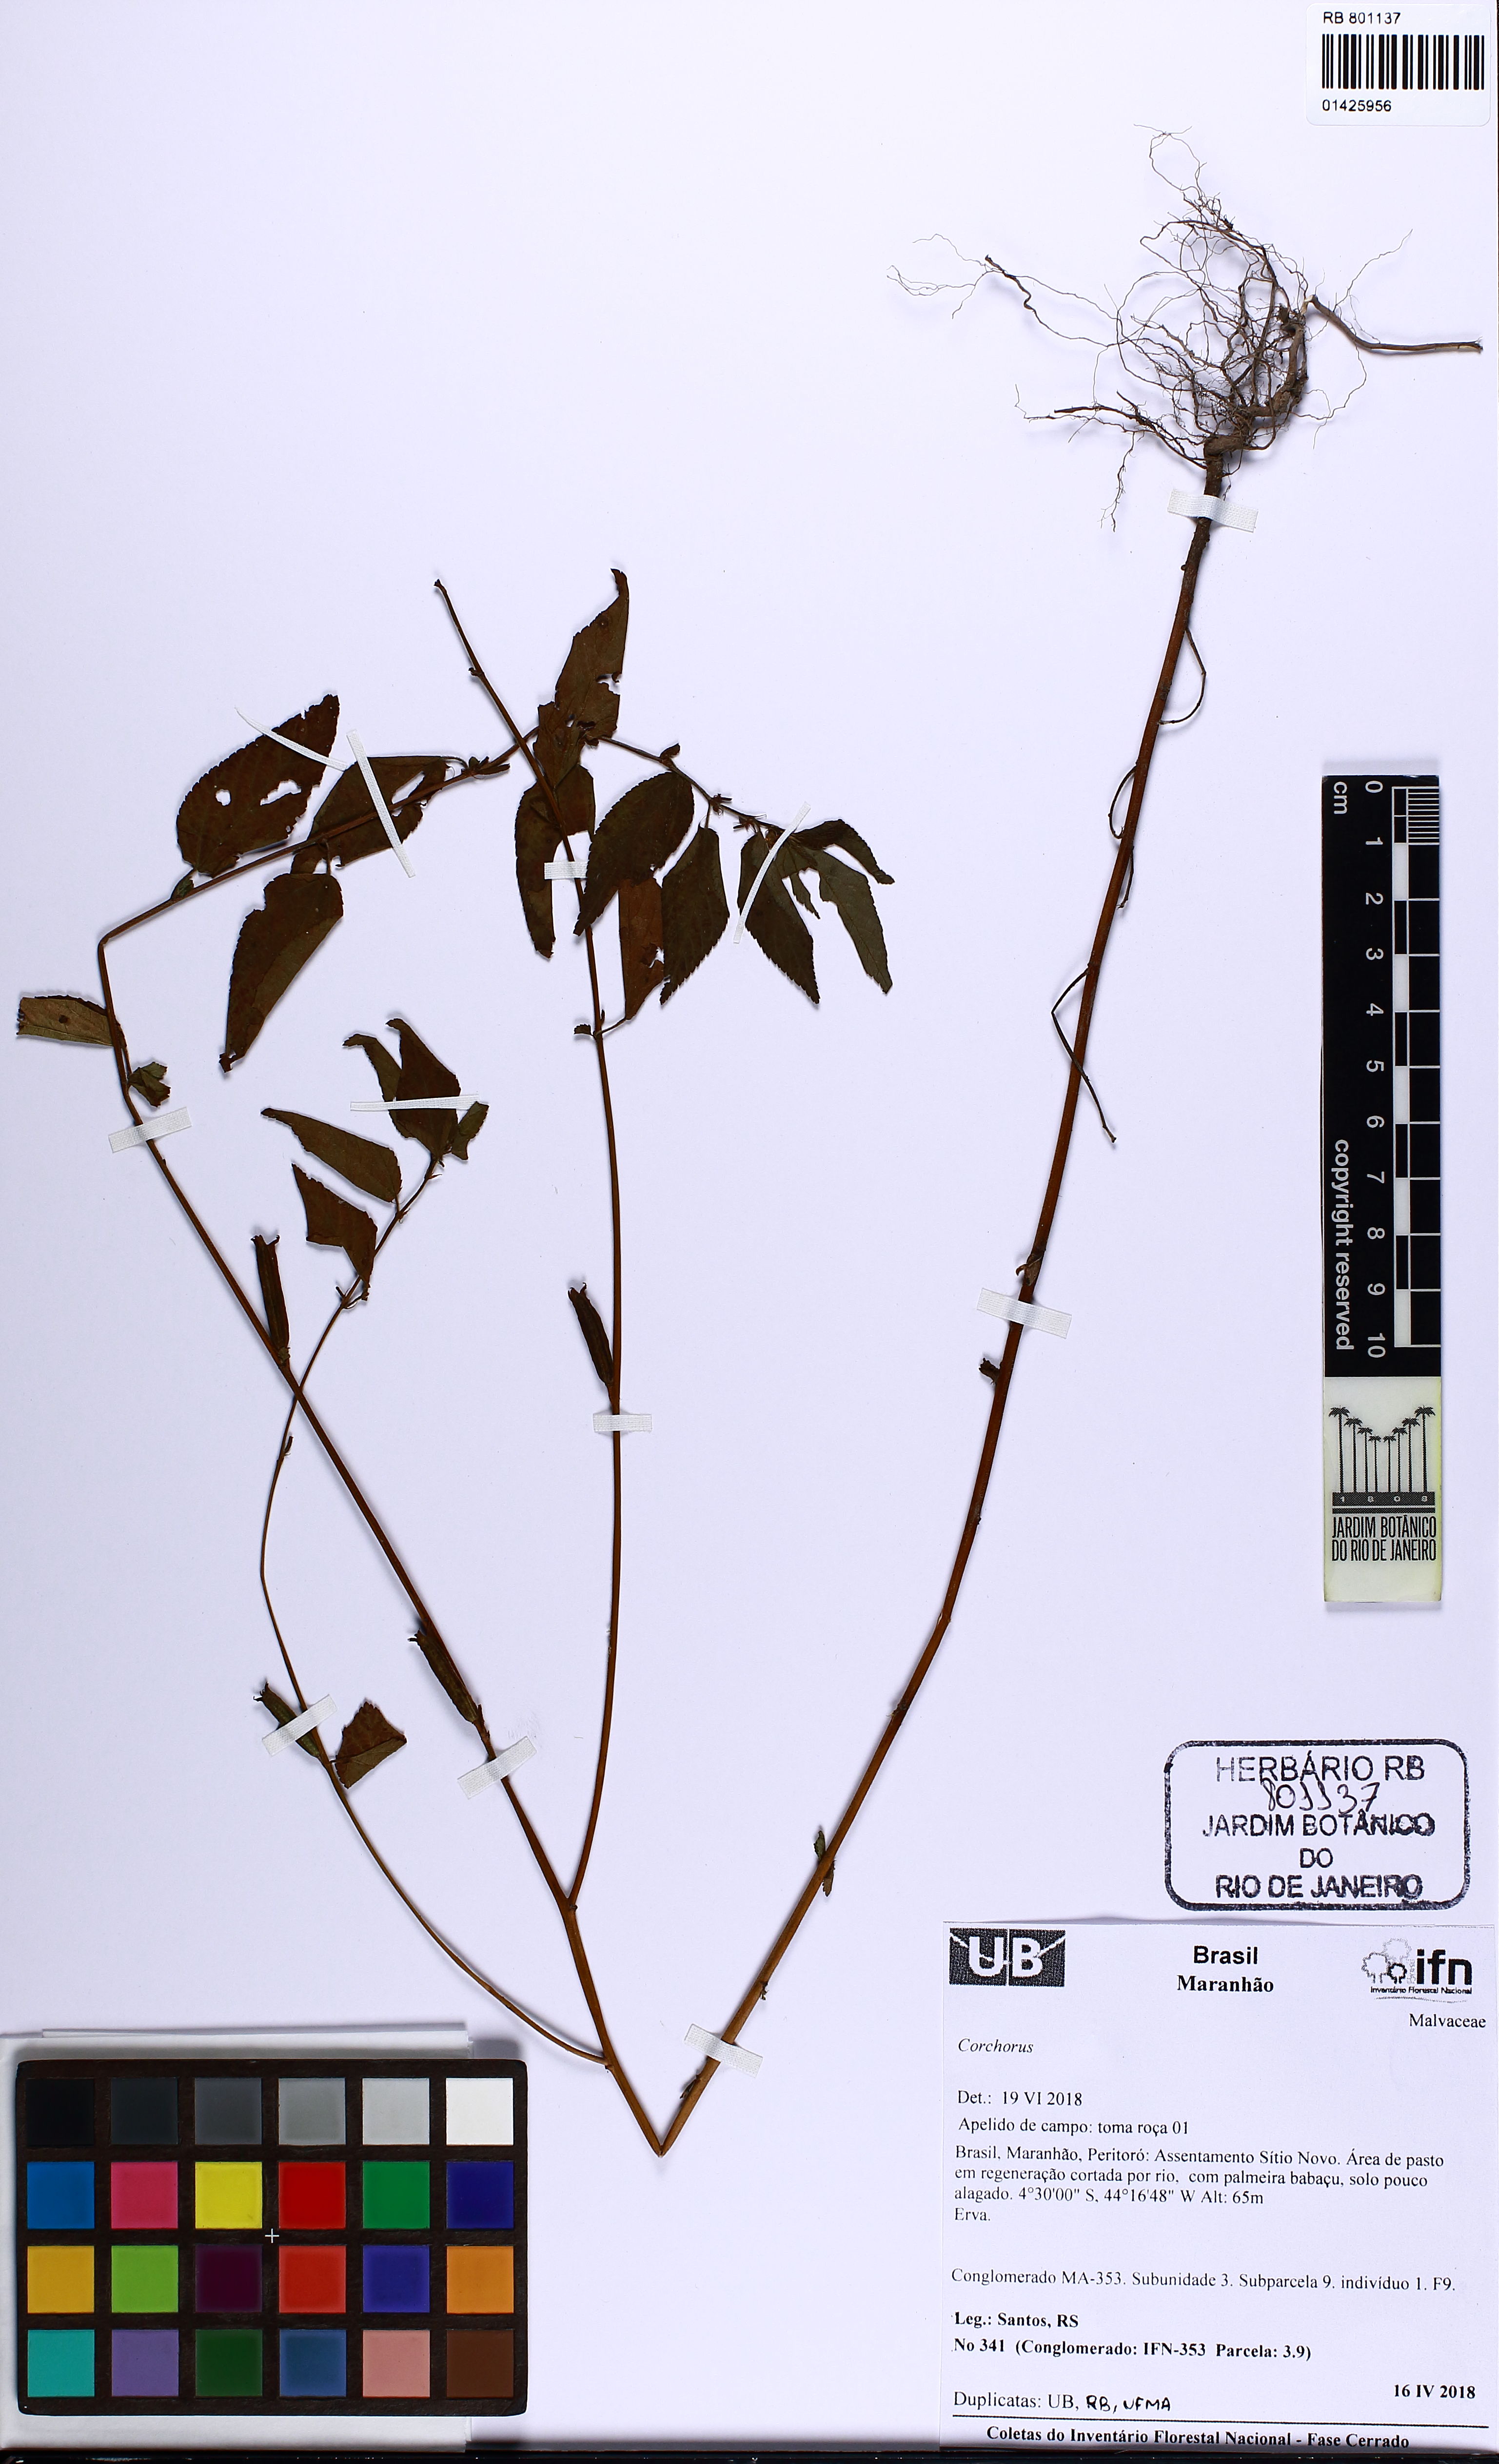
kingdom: Plantae
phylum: Tracheophyta
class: Magnoliopsida
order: Malvales
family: Malvaceae
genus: Corchorus
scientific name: Corchorus
